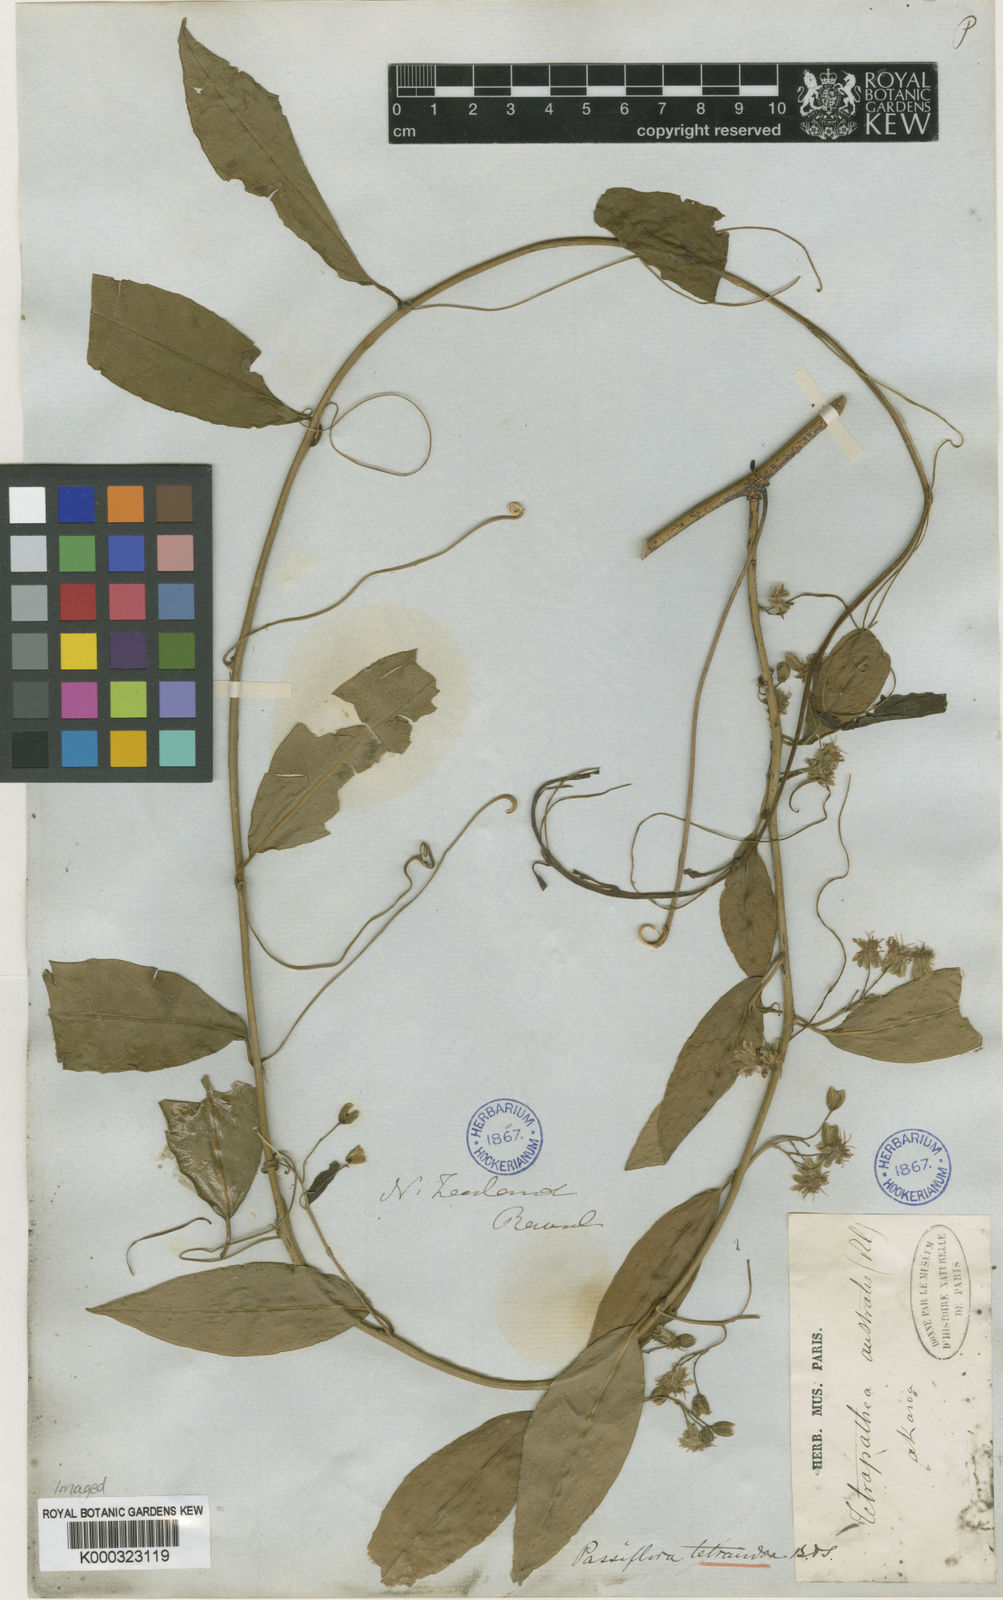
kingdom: Plantae
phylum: Tracheophyta
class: Magnoliopsida
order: Malpighiales
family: Passifloraceae
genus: Passiflora
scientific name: Passiflora
